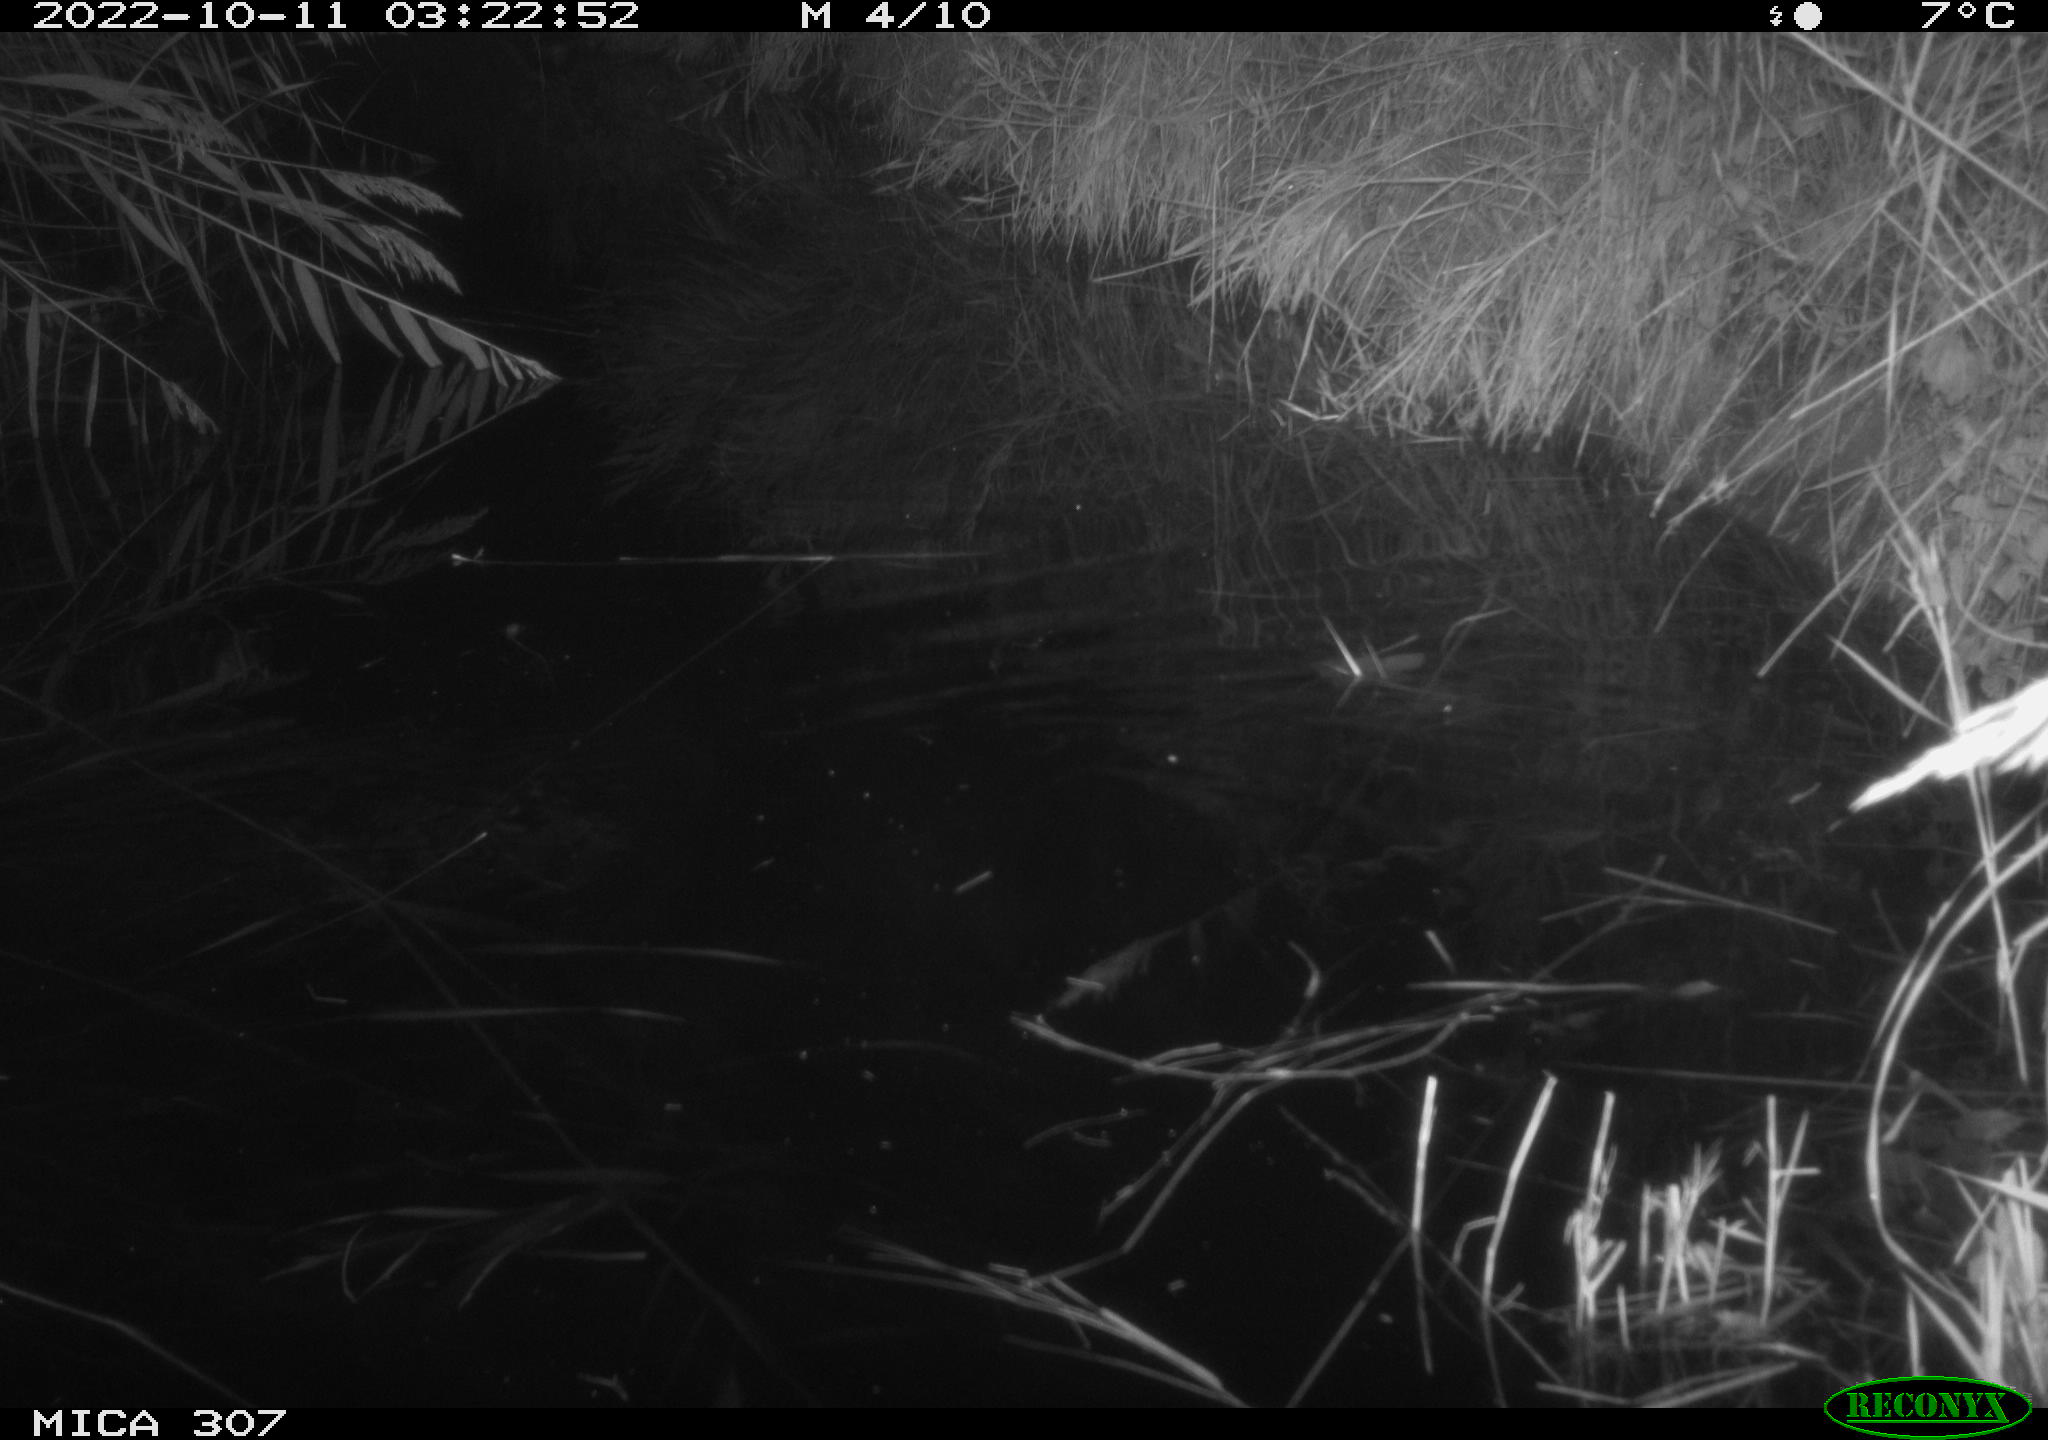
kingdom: Animalia
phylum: Chordata
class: Mammalia
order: Rodentia
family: Muridae
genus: Rattus
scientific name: Rattus norvegicus
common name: Brown rat
